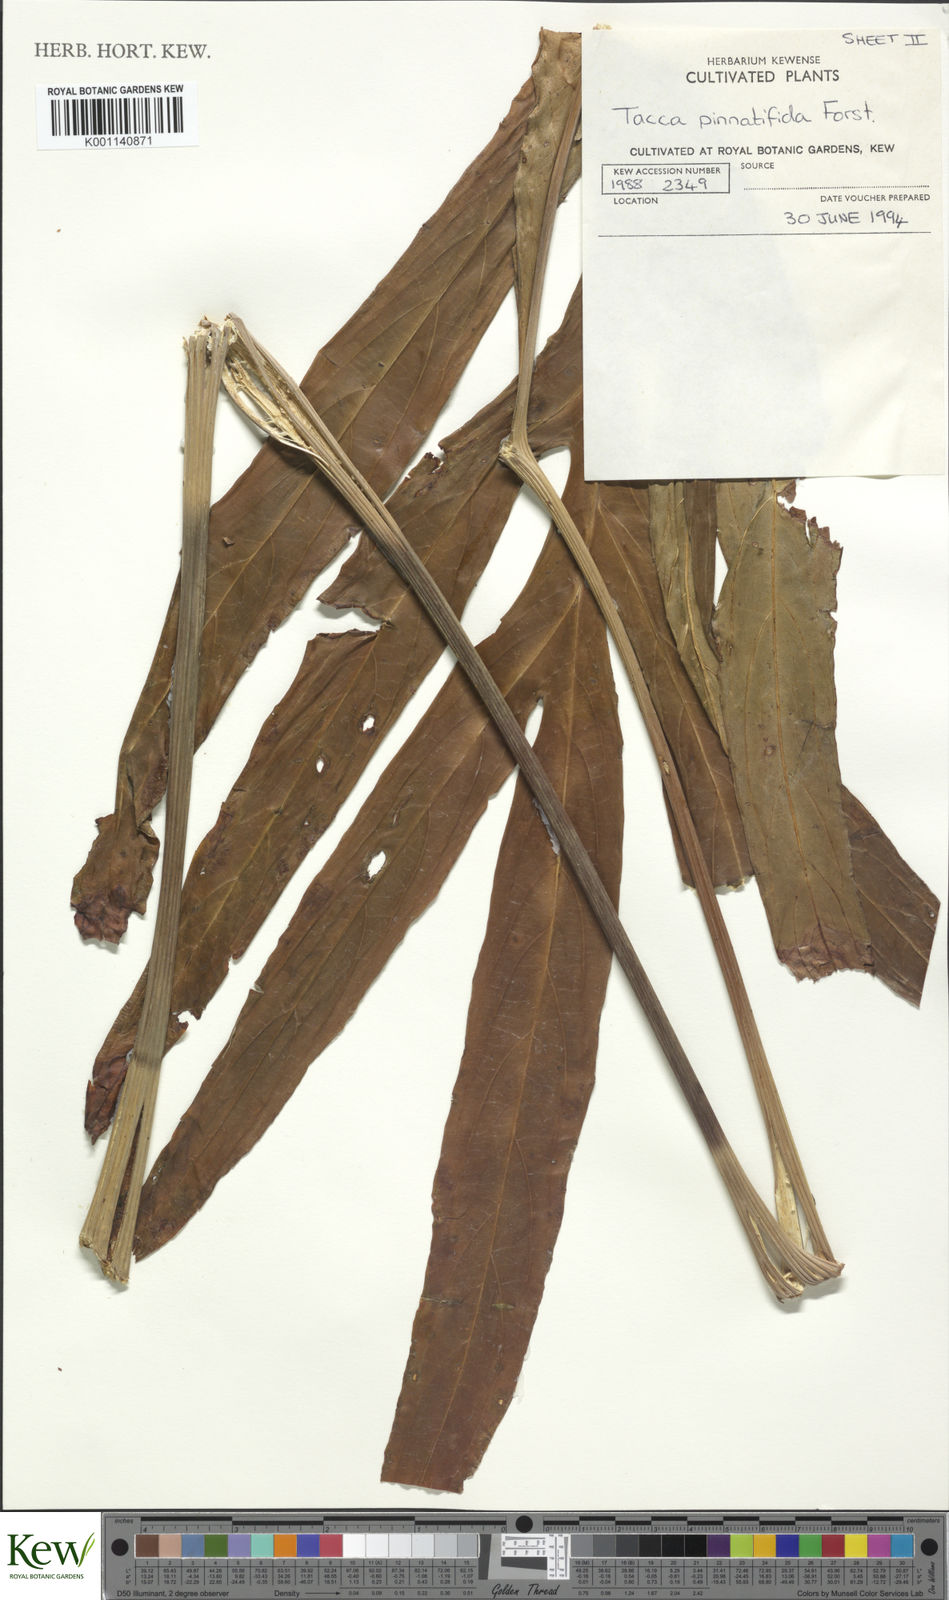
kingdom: Plantae
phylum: Tracheophyta
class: Liliopsida
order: Dioscoreales
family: Dioscoreaceae
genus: Tacca
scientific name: Tacca leontopetaloides
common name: Arrowroot
